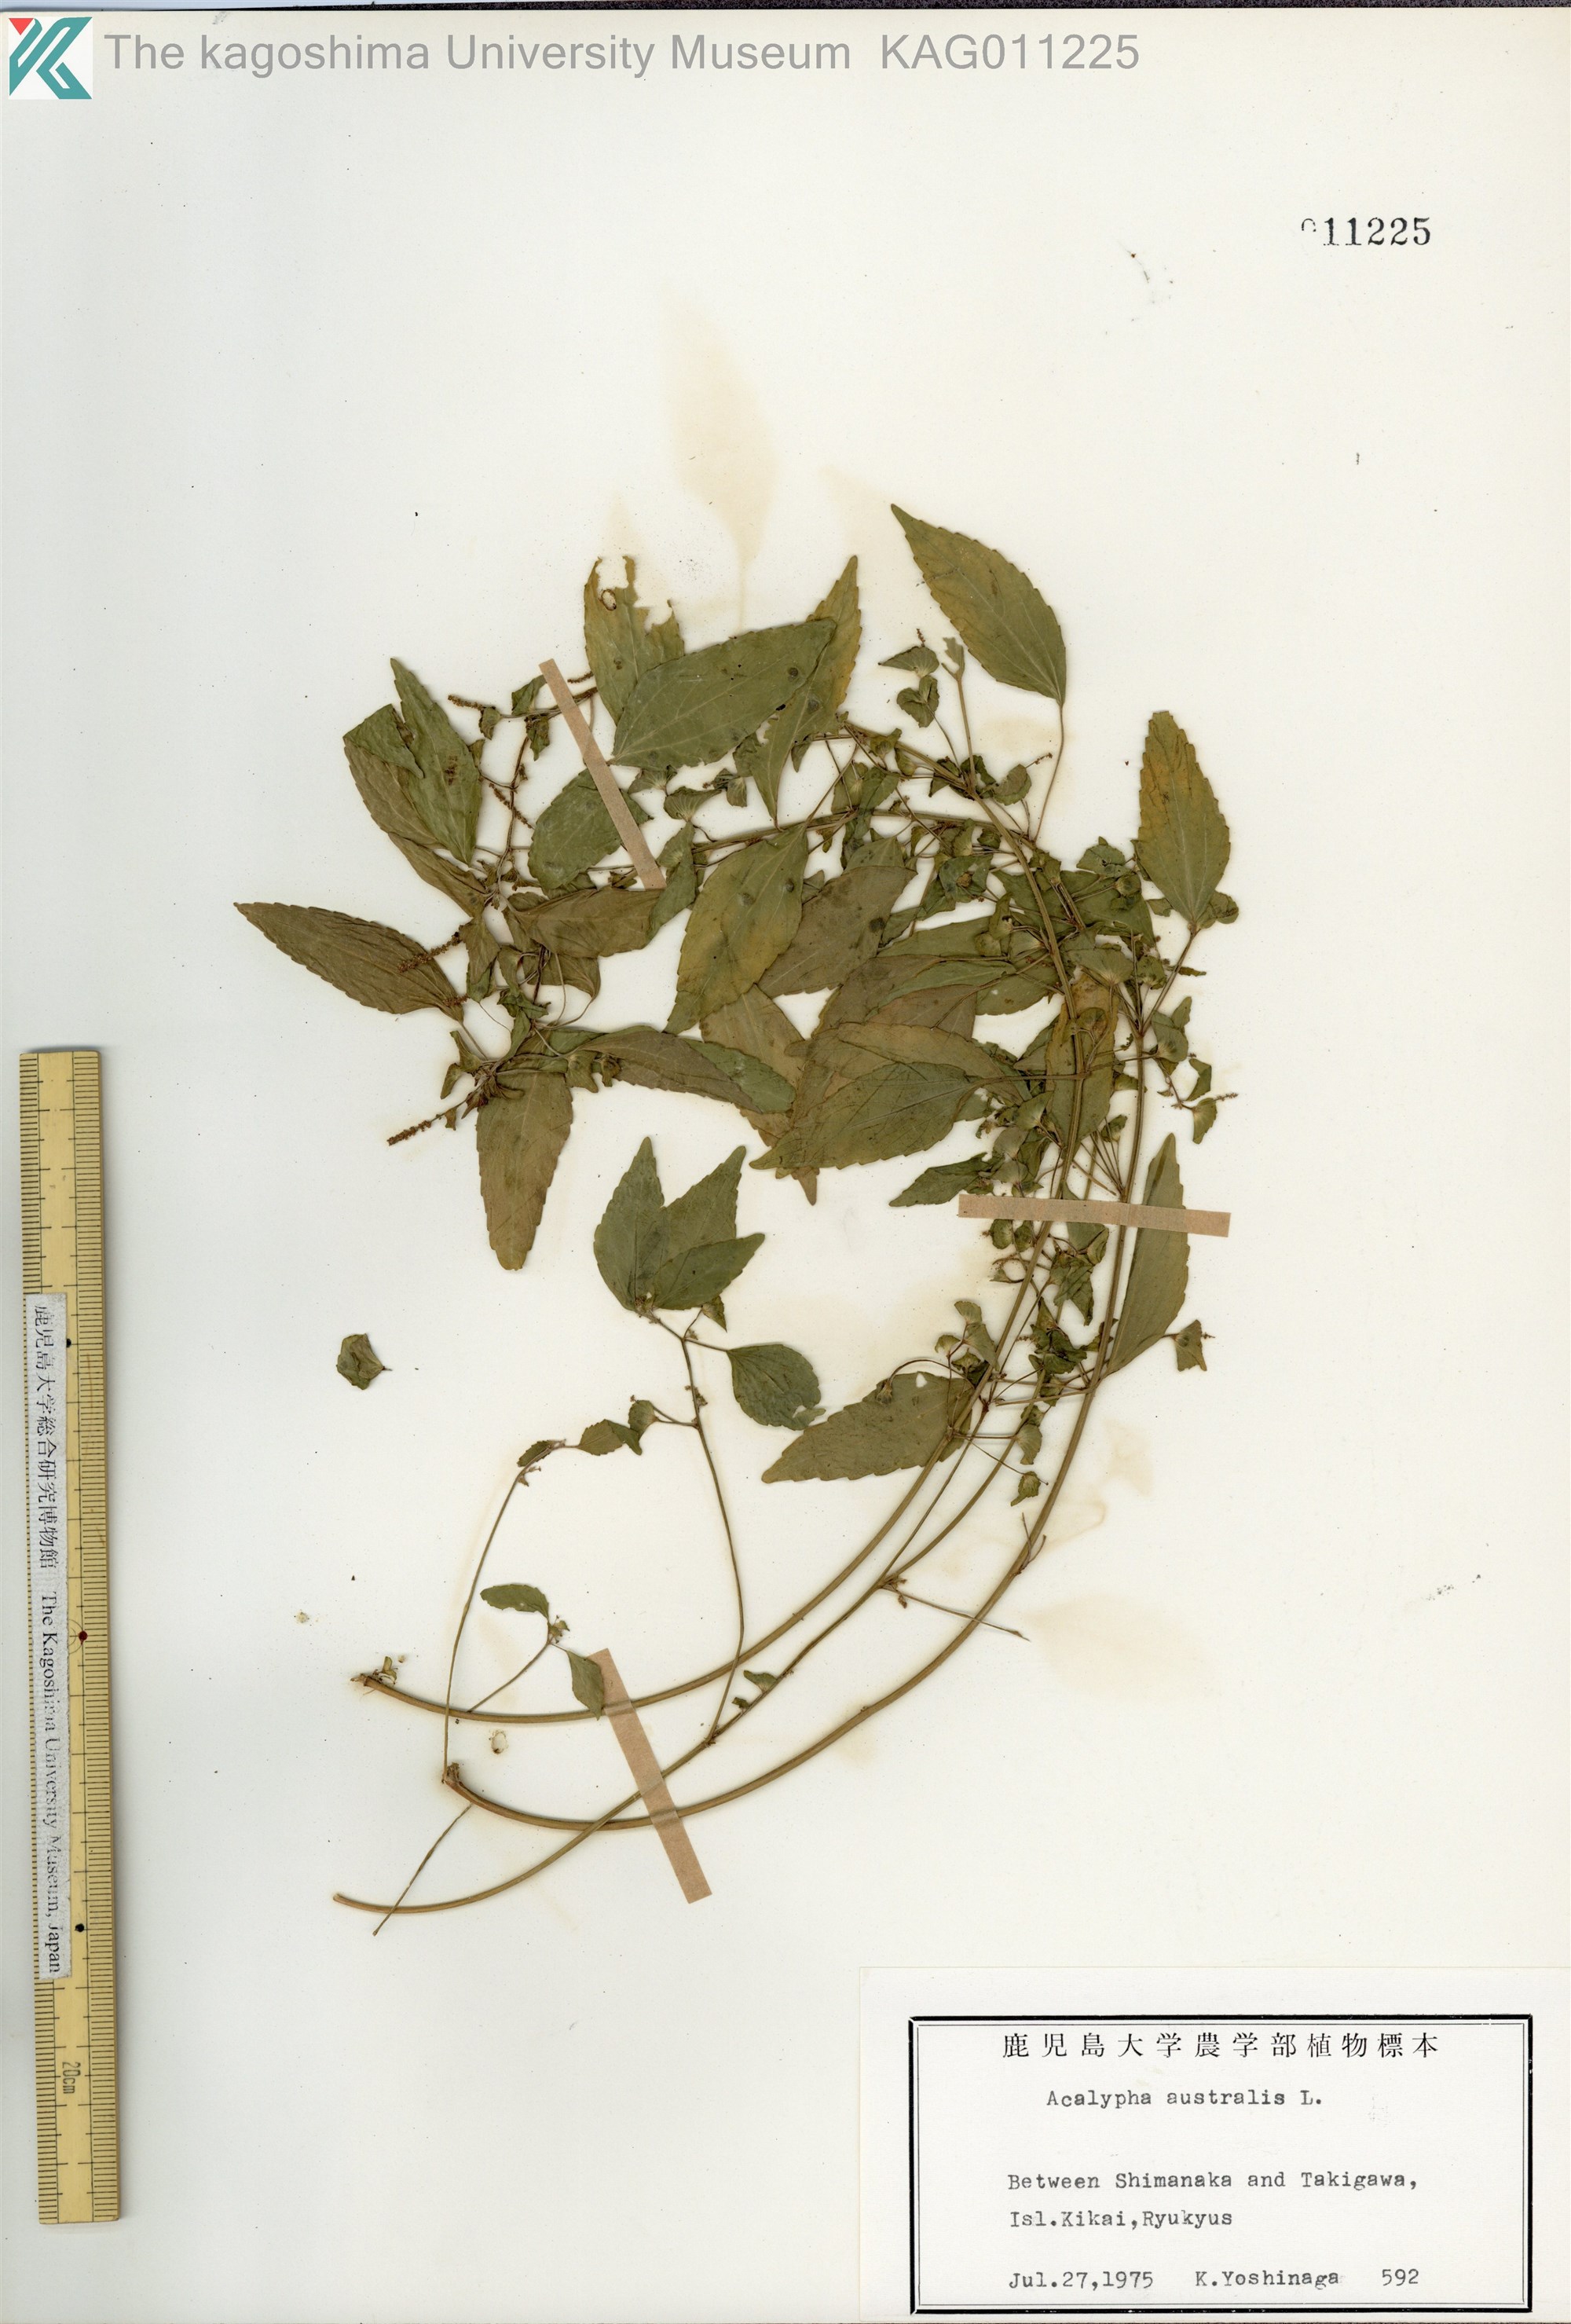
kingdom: Plantae
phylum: Tracheophyta
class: Magnoliopsida
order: Malpighiales
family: Euphorbiaceae
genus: Acalypha
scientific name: Acalypha australis
